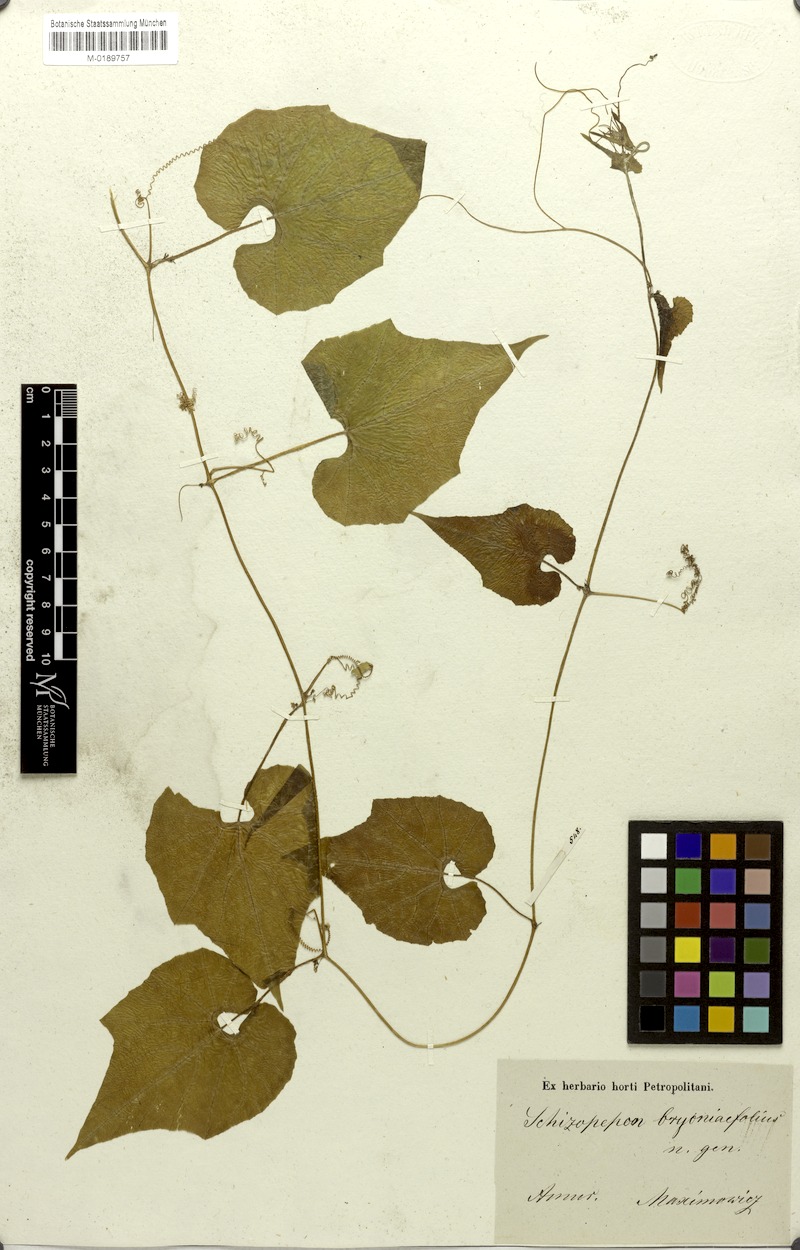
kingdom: Plantae
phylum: Tracheophyta
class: Magnoliopsida
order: Cucurbitales
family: Cucurbitaceae
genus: Schizopepon
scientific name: Schizopepon bryoniifolius
